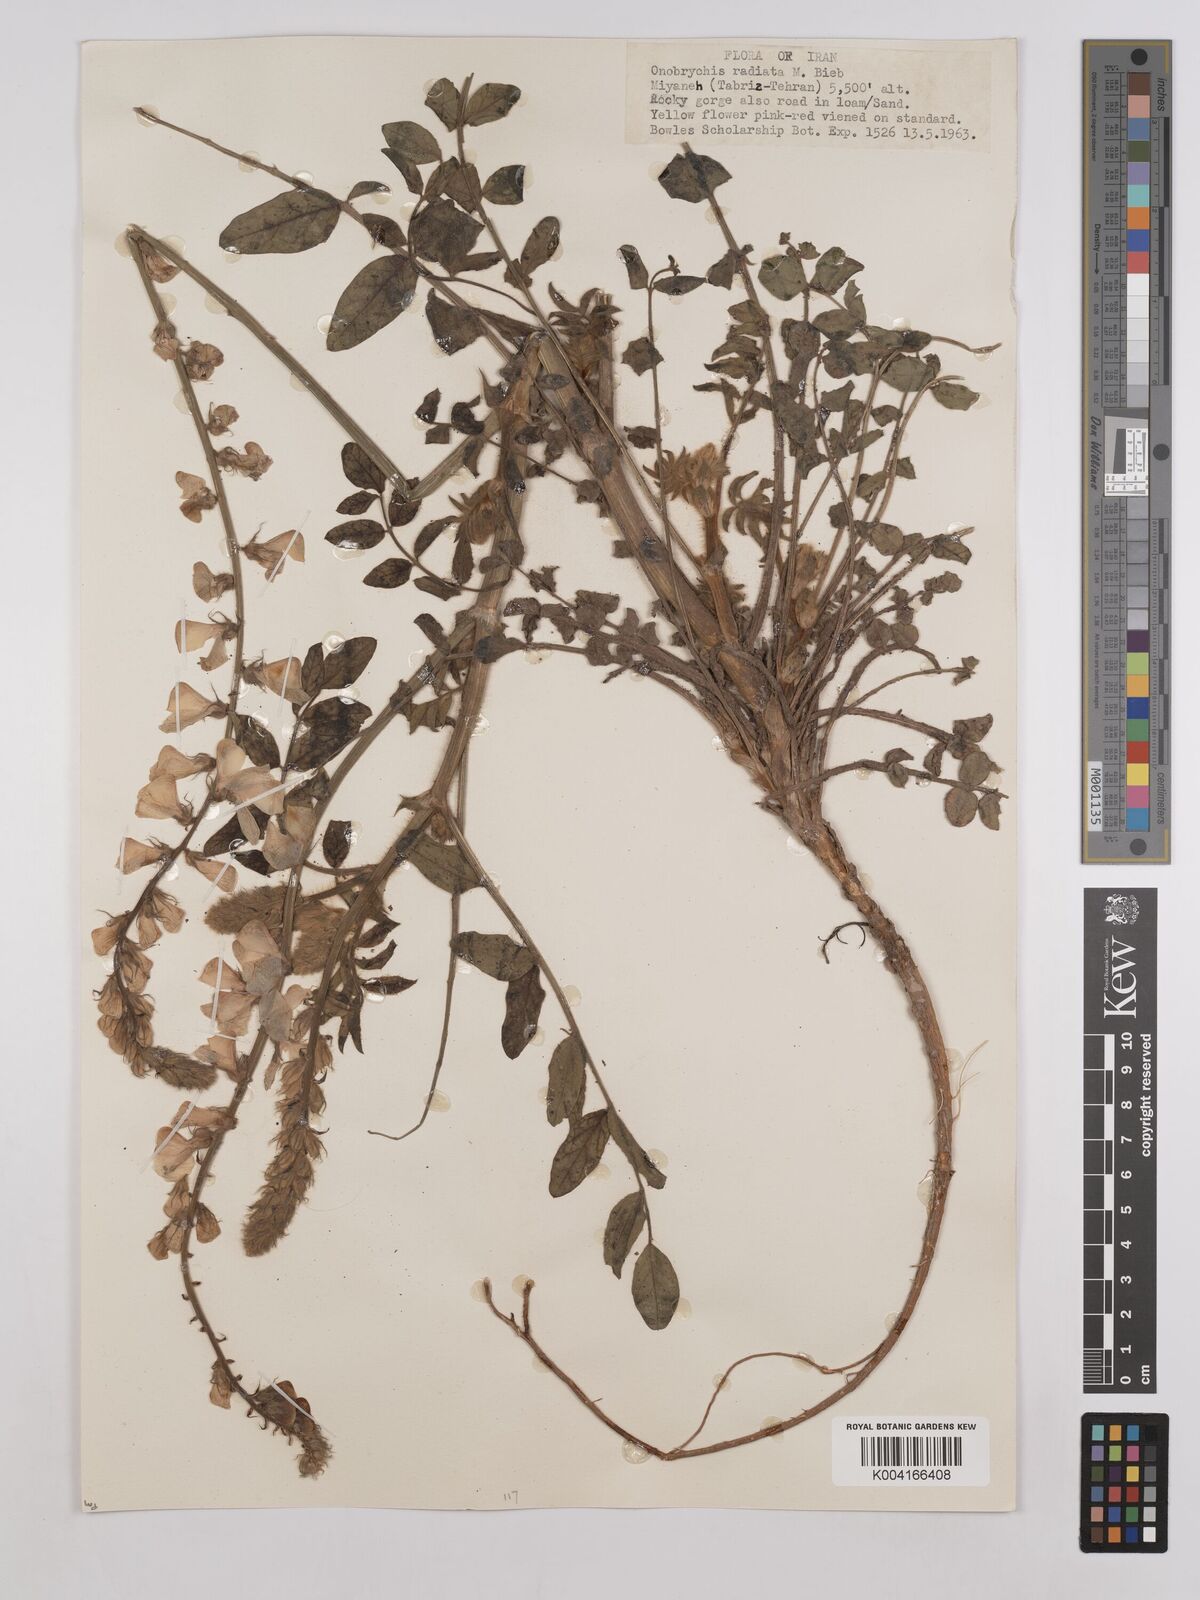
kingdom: Plantae
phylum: Tracheophyta
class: Magnoliopsida
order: Fabales
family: Fabaceae
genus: Onobrychis
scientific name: Onobrychis
